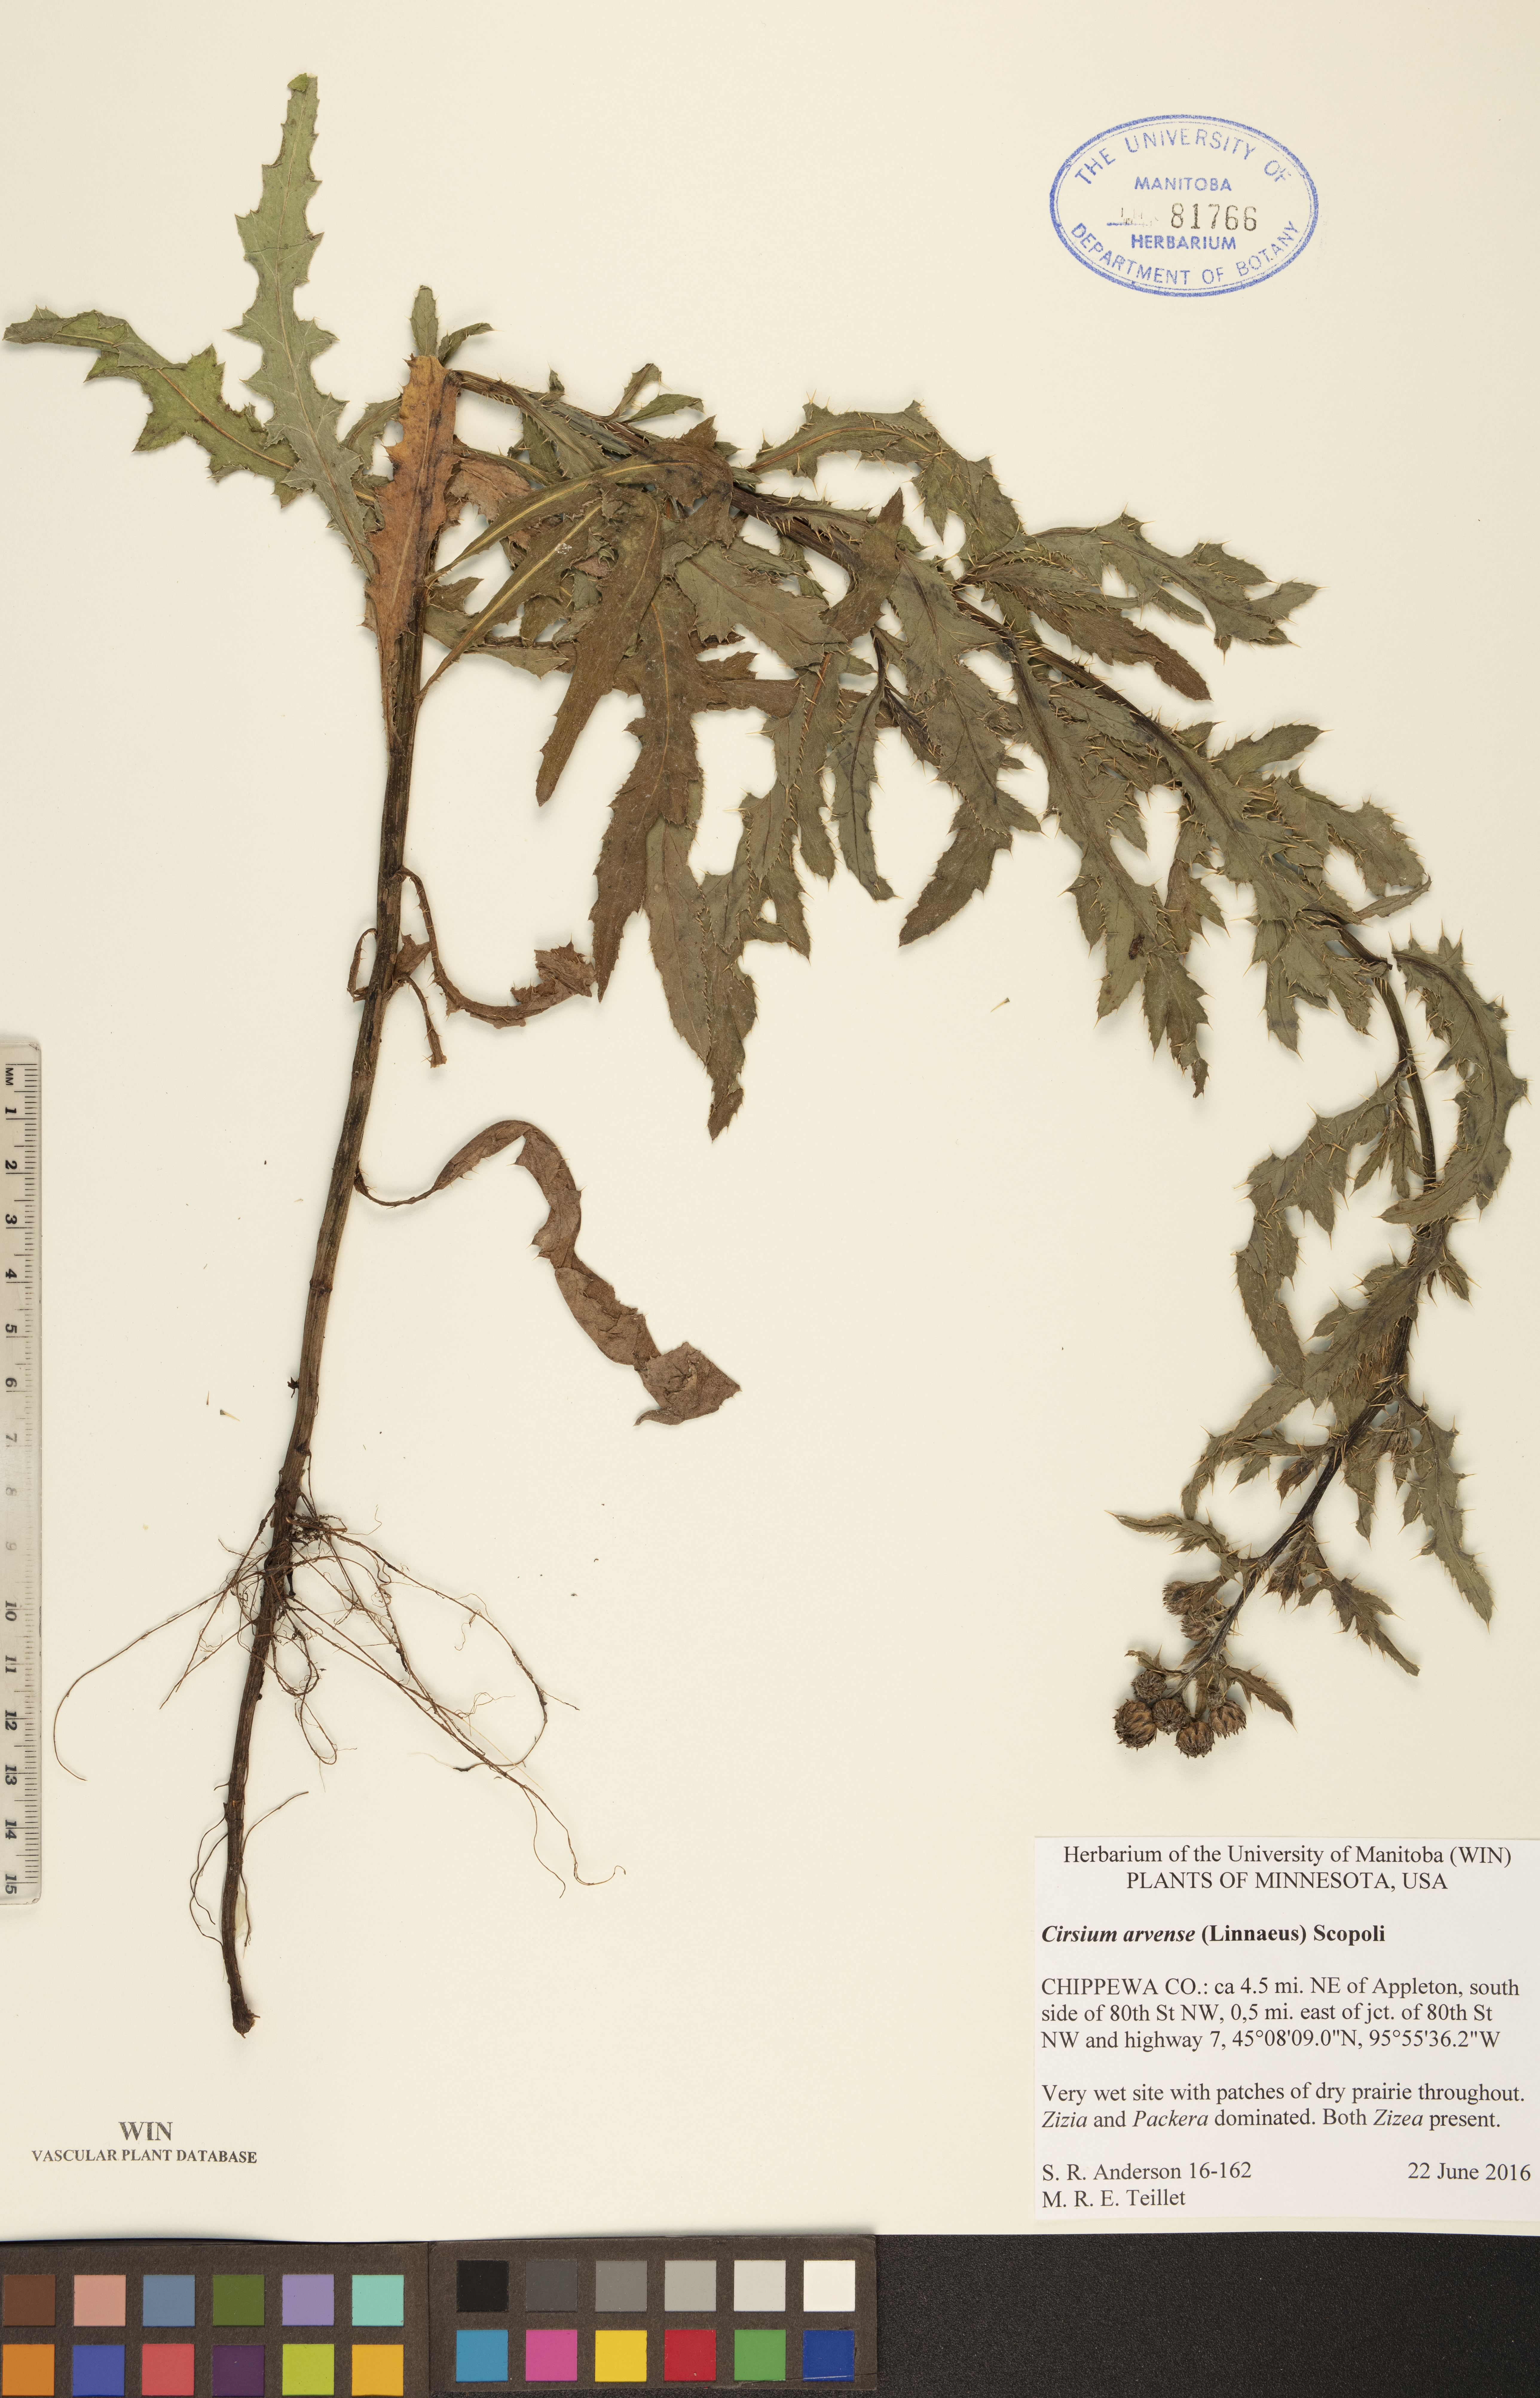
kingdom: Plantae
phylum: Tracheophyta
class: Magnoliopsida
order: Asterales
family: Asteraceae
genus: Cirsium
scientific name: Cirsium arvense
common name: Creeping thistle
